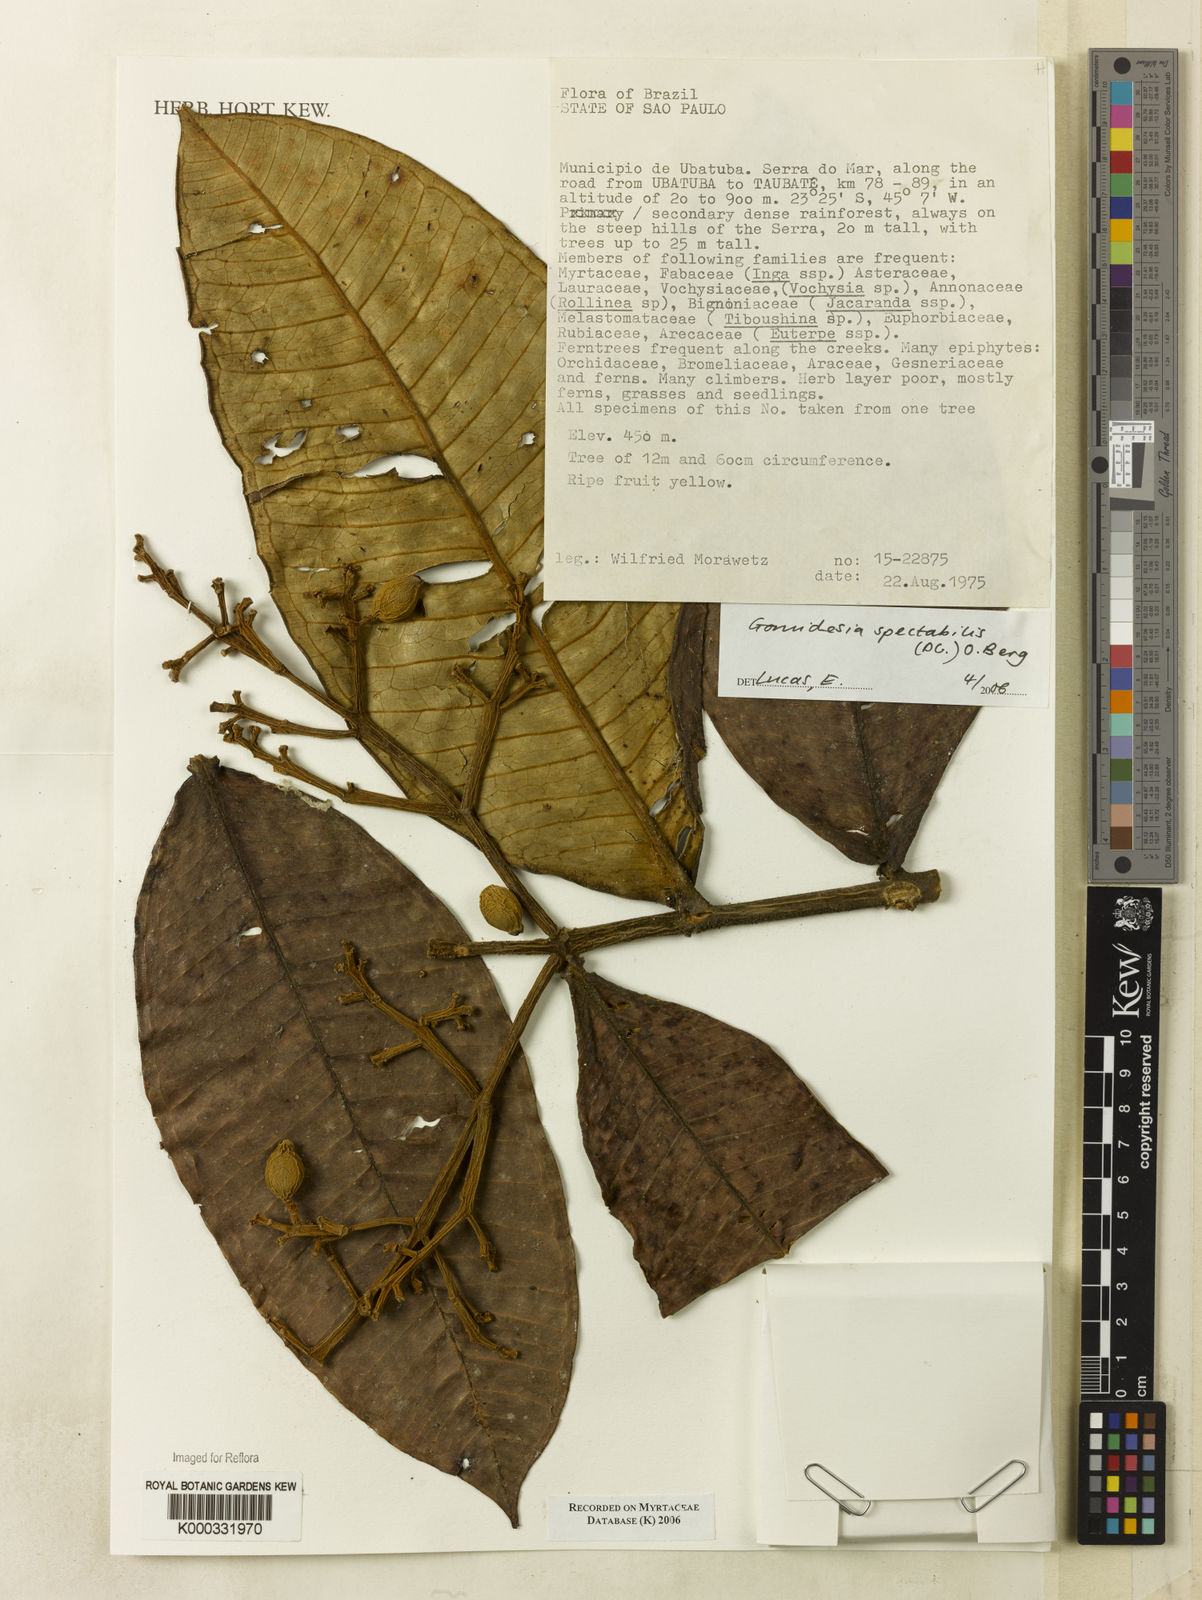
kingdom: Plantae
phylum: Tracheophyta
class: Magnoliopsida
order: Myrtales
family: Myrtaceae
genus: Myrcia
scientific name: Myrcia spectabilis
